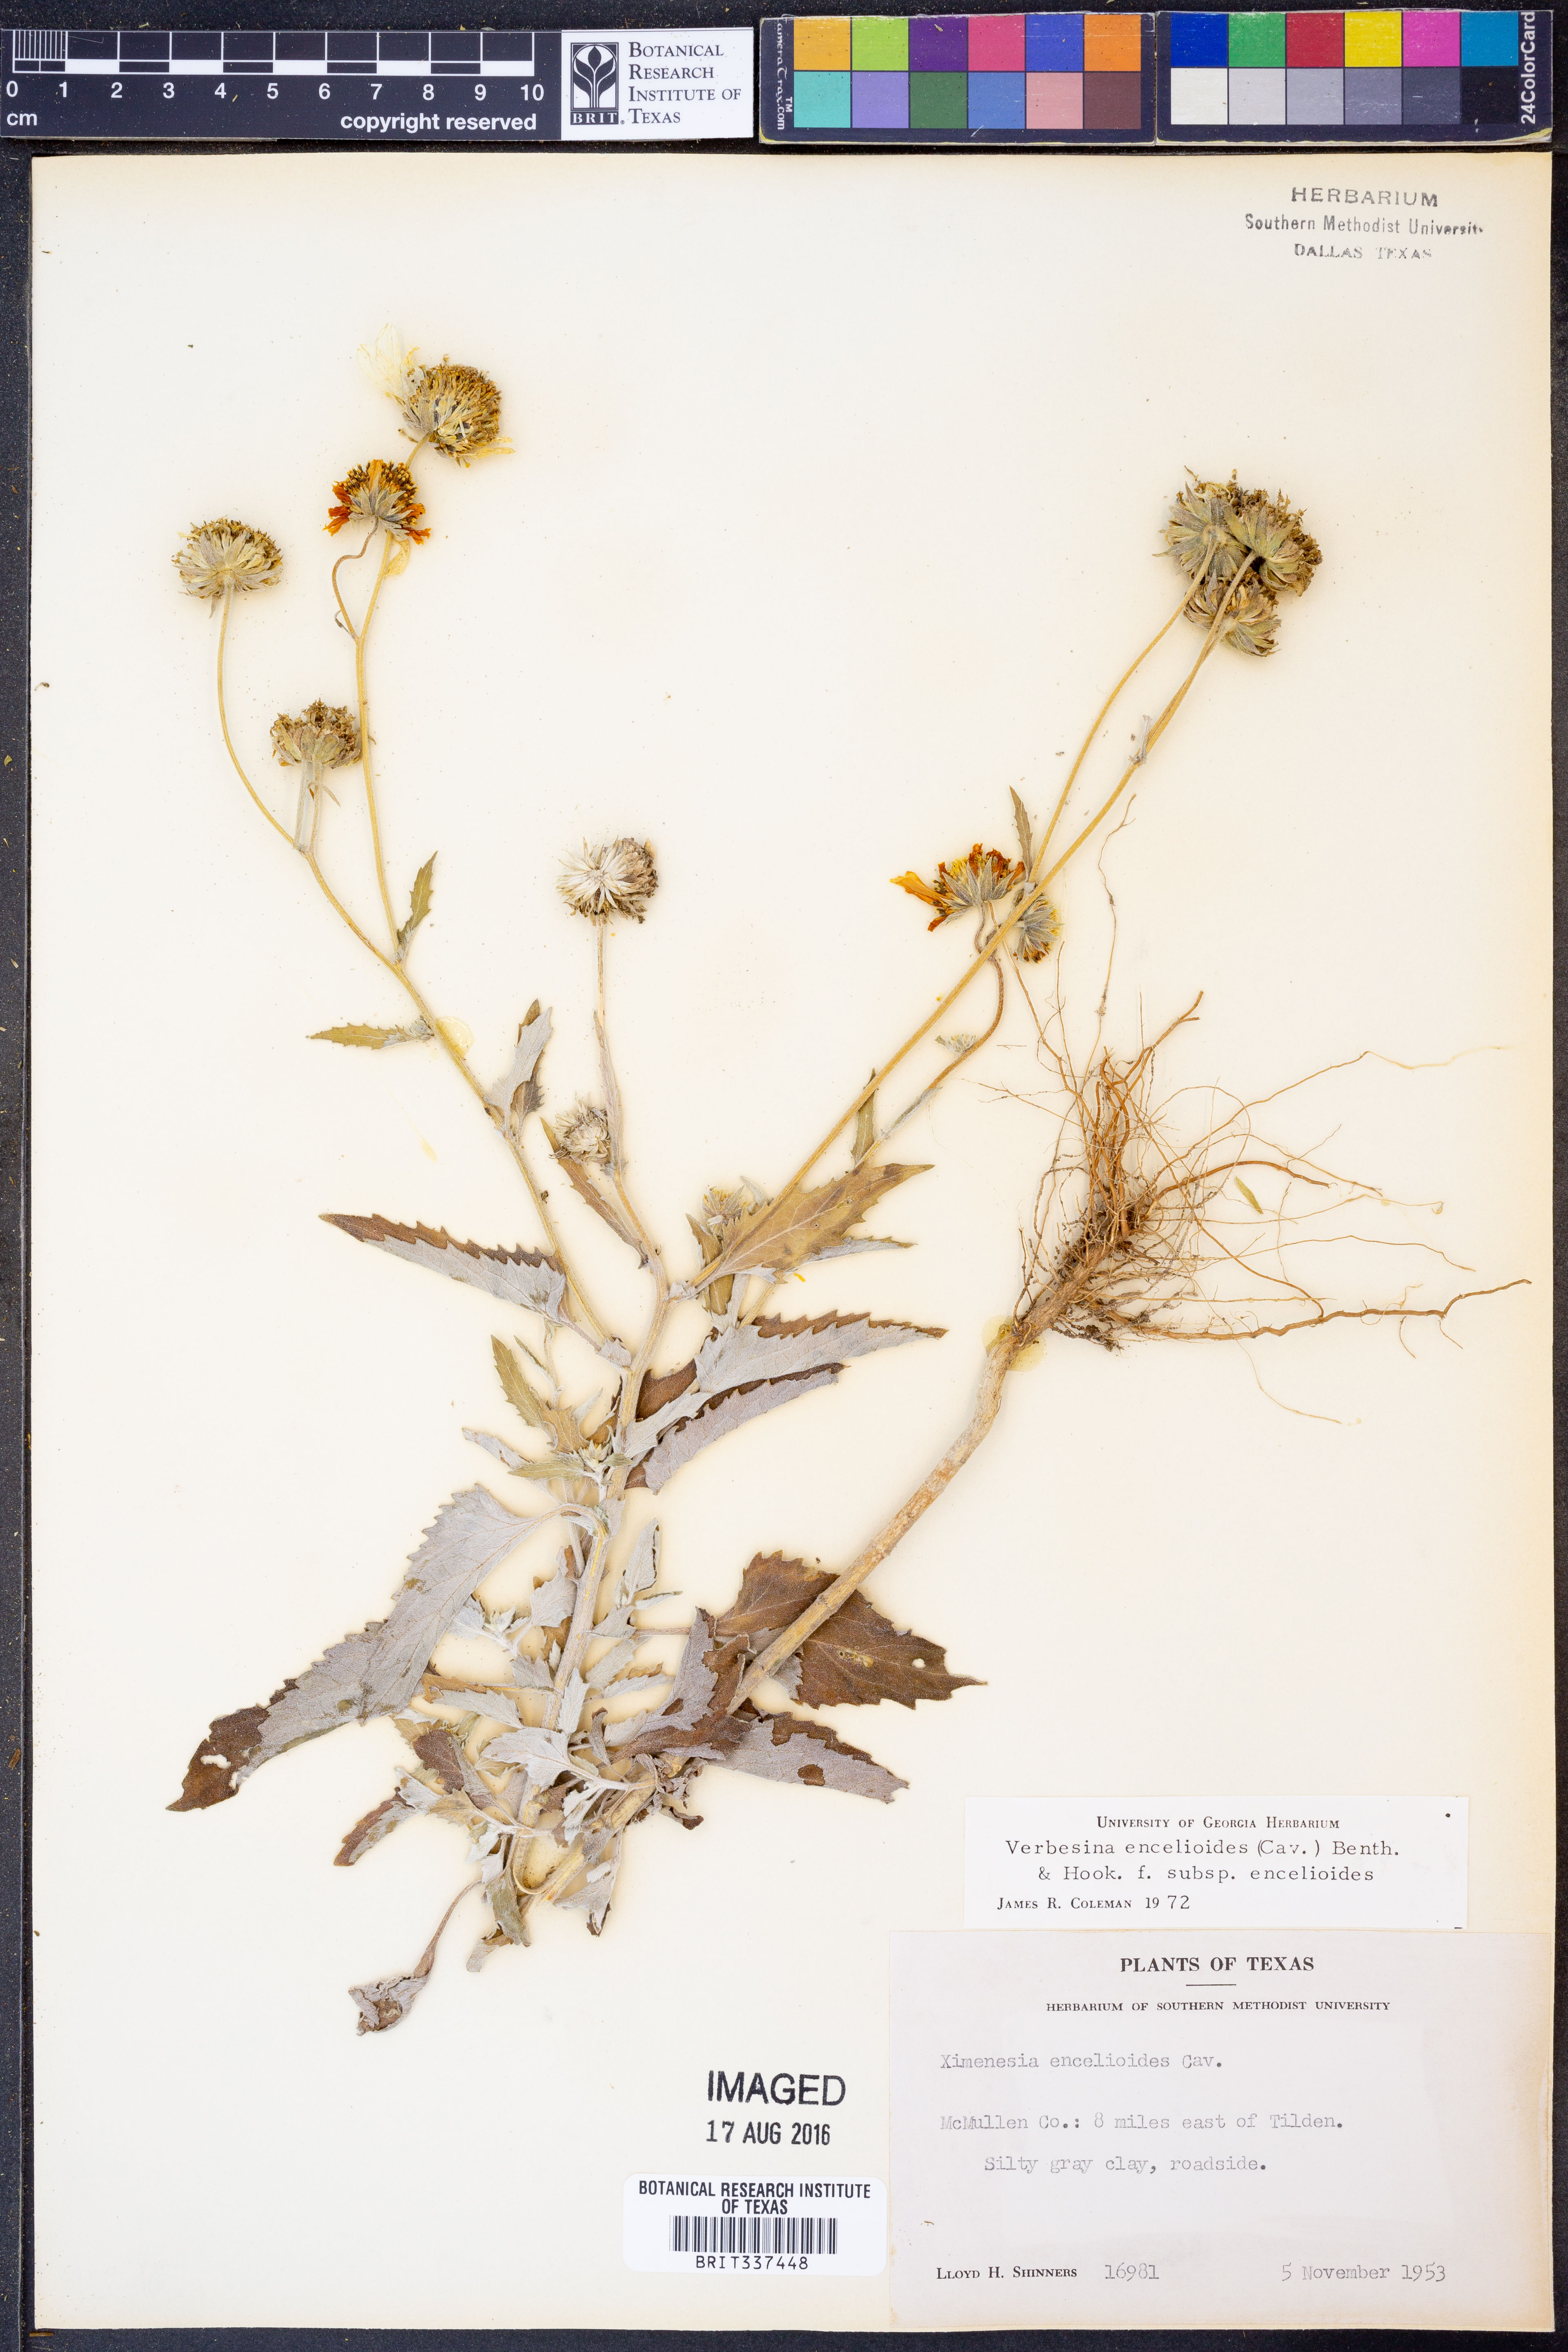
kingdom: Plantae
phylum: Tracheophyta
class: Magnoliopsida
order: Asterales
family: Asteraceae
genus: Verbesina
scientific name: Verbesina encelioides
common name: Golden crownbeard
